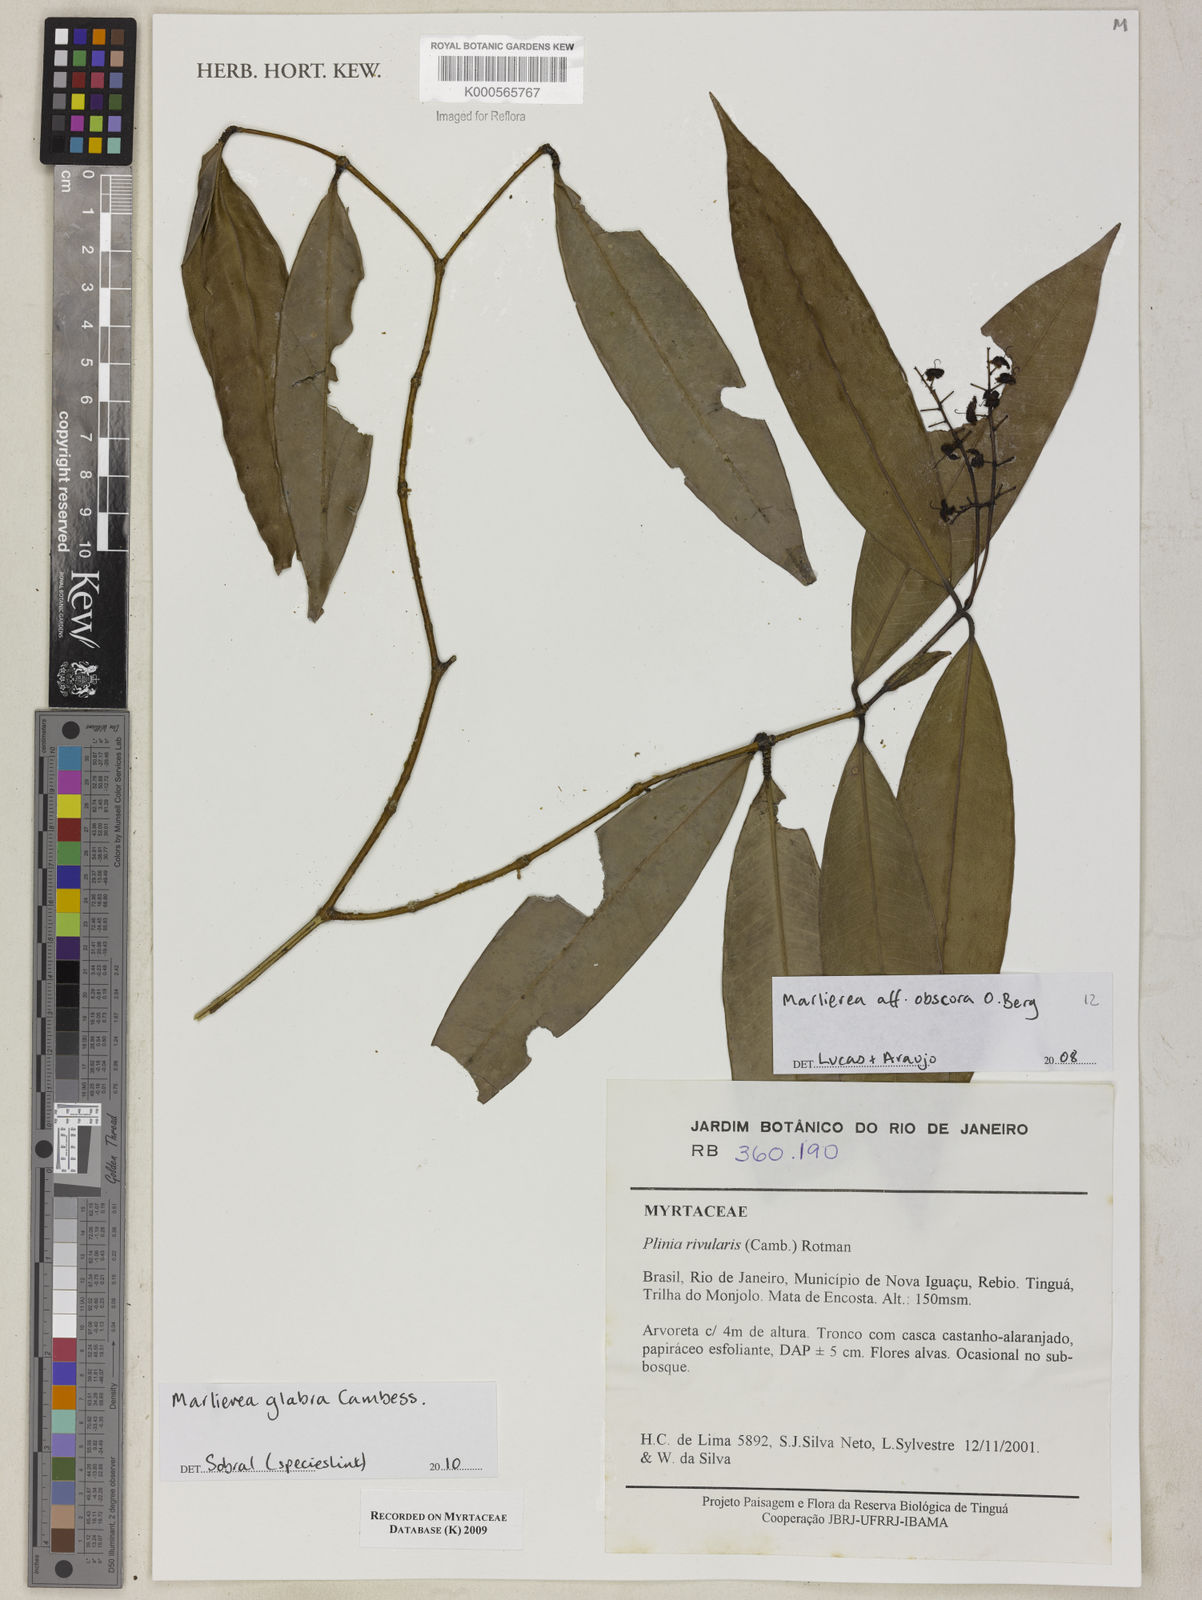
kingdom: Plantae
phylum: Tracheophyta
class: Magnoliopsida
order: Myrtales
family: Myrtaceae
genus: Myrcia
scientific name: Myrcia neoobscura
